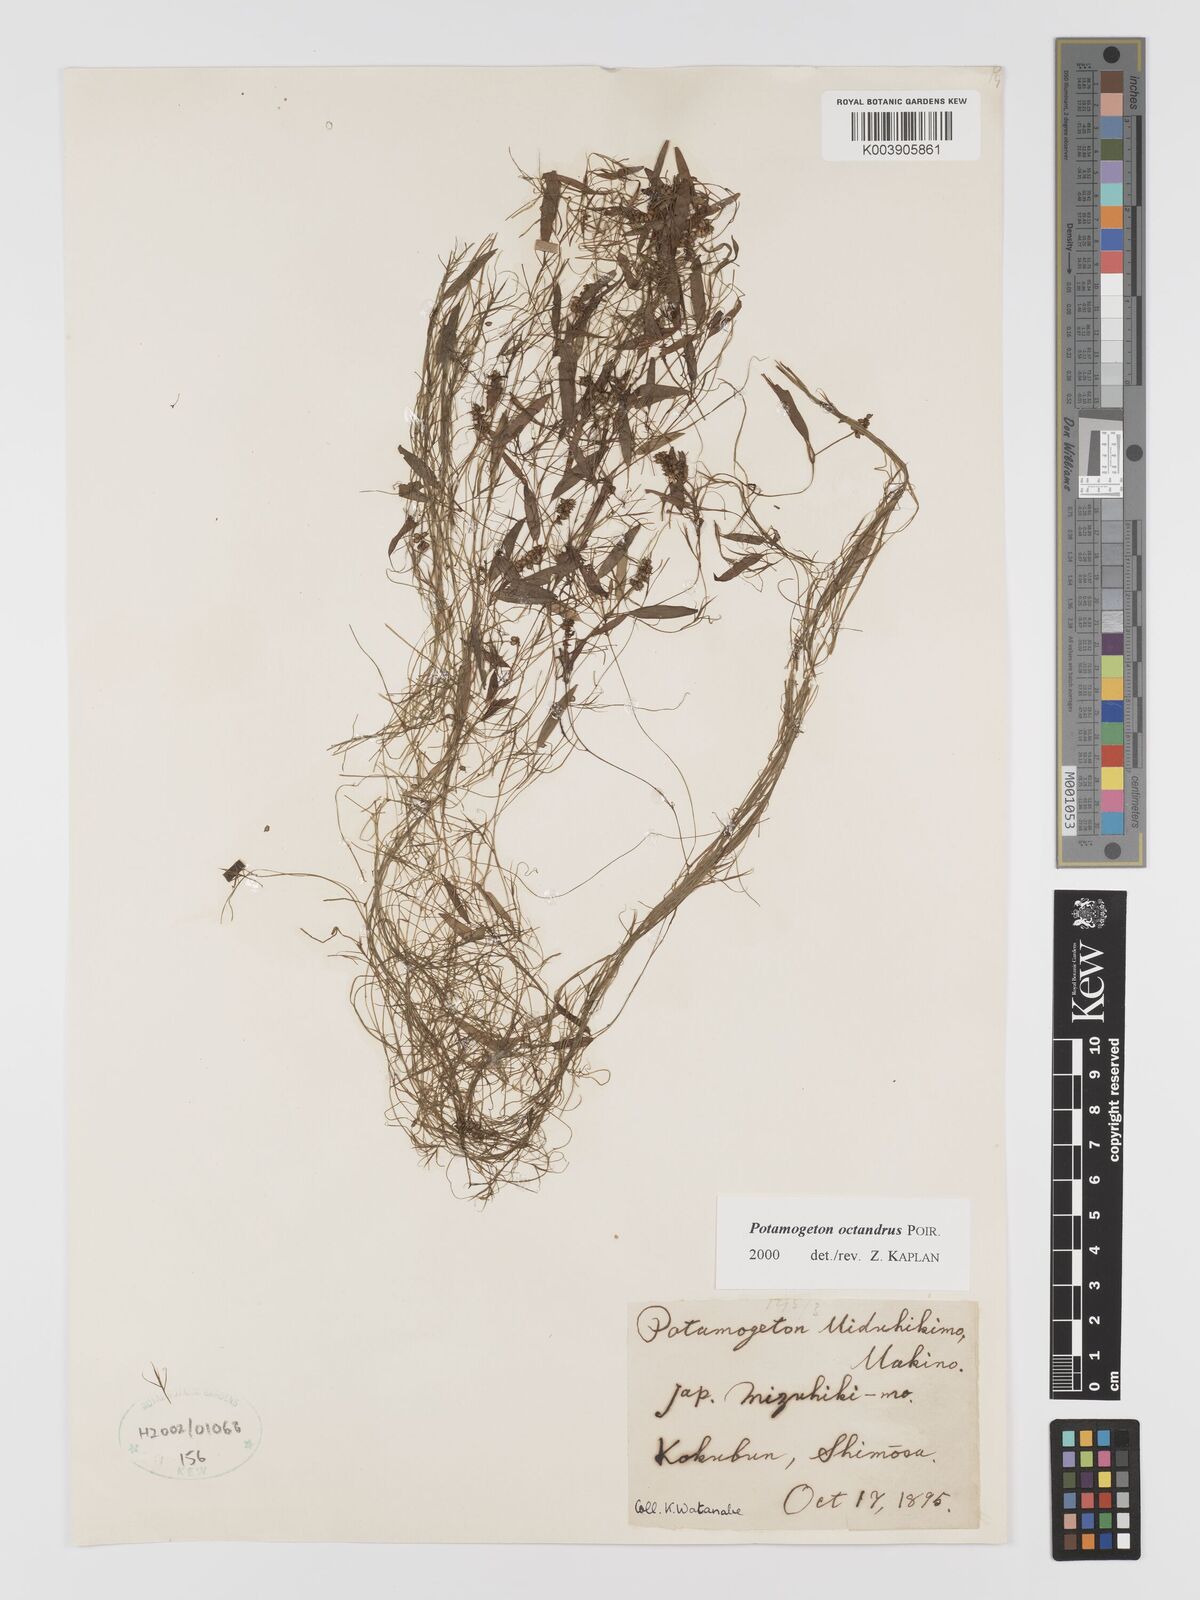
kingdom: Plantae
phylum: Tracheophyta
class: Liliopsida
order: Alismatales
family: Potamogetonaceae
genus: Potamogeton
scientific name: Potamogeton octandrus
